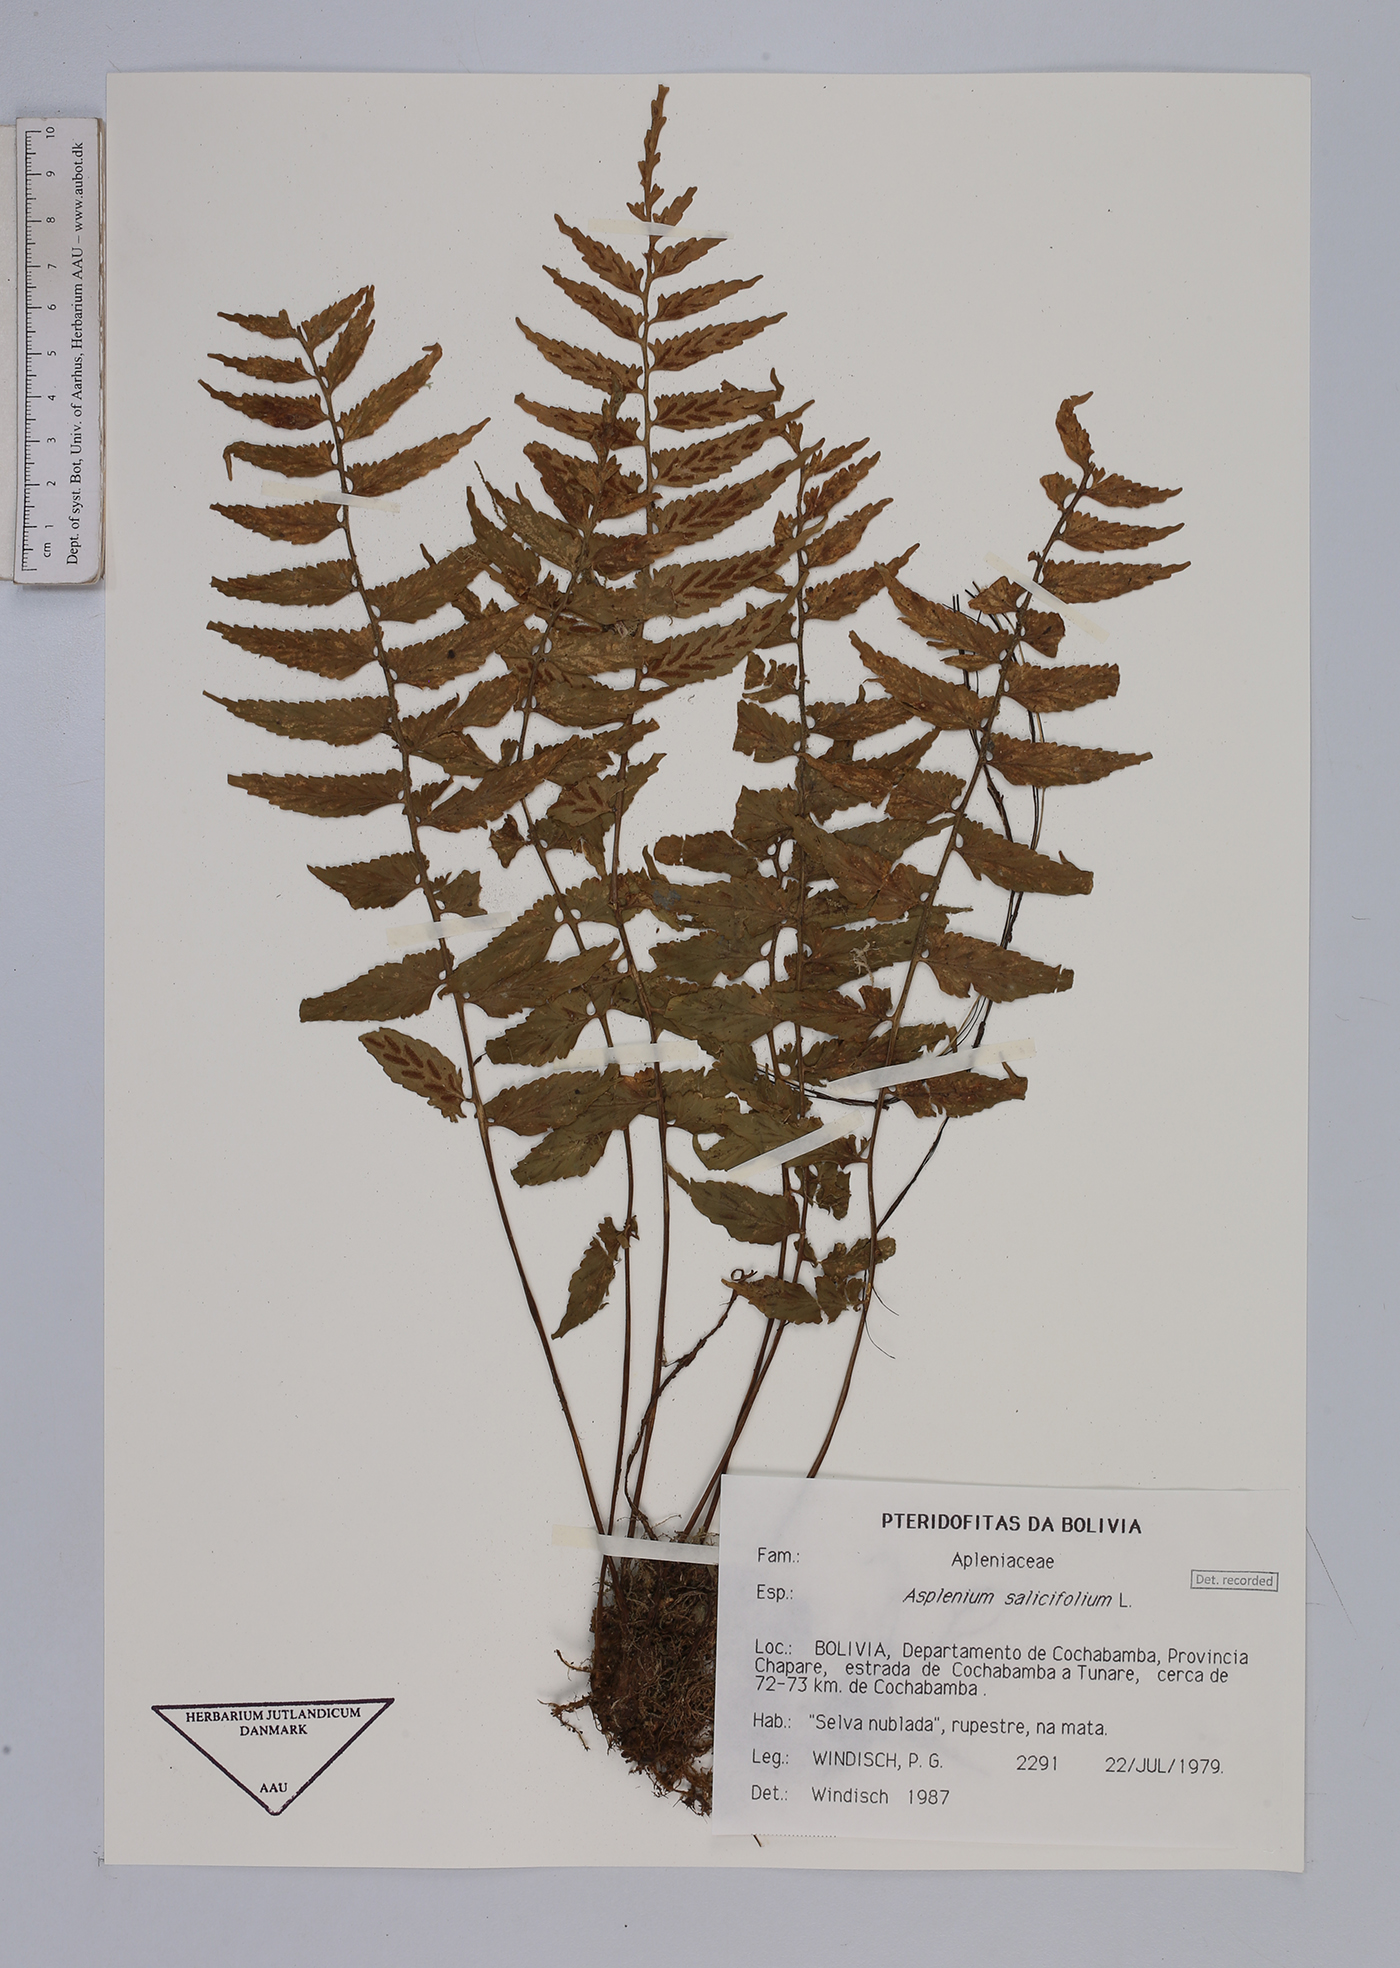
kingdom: Plantae
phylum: Tracheophyta
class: Polypodiopsida
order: Polypodiales
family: Aspleniaceae
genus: Asplenium
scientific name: Asplenium salicifolium
